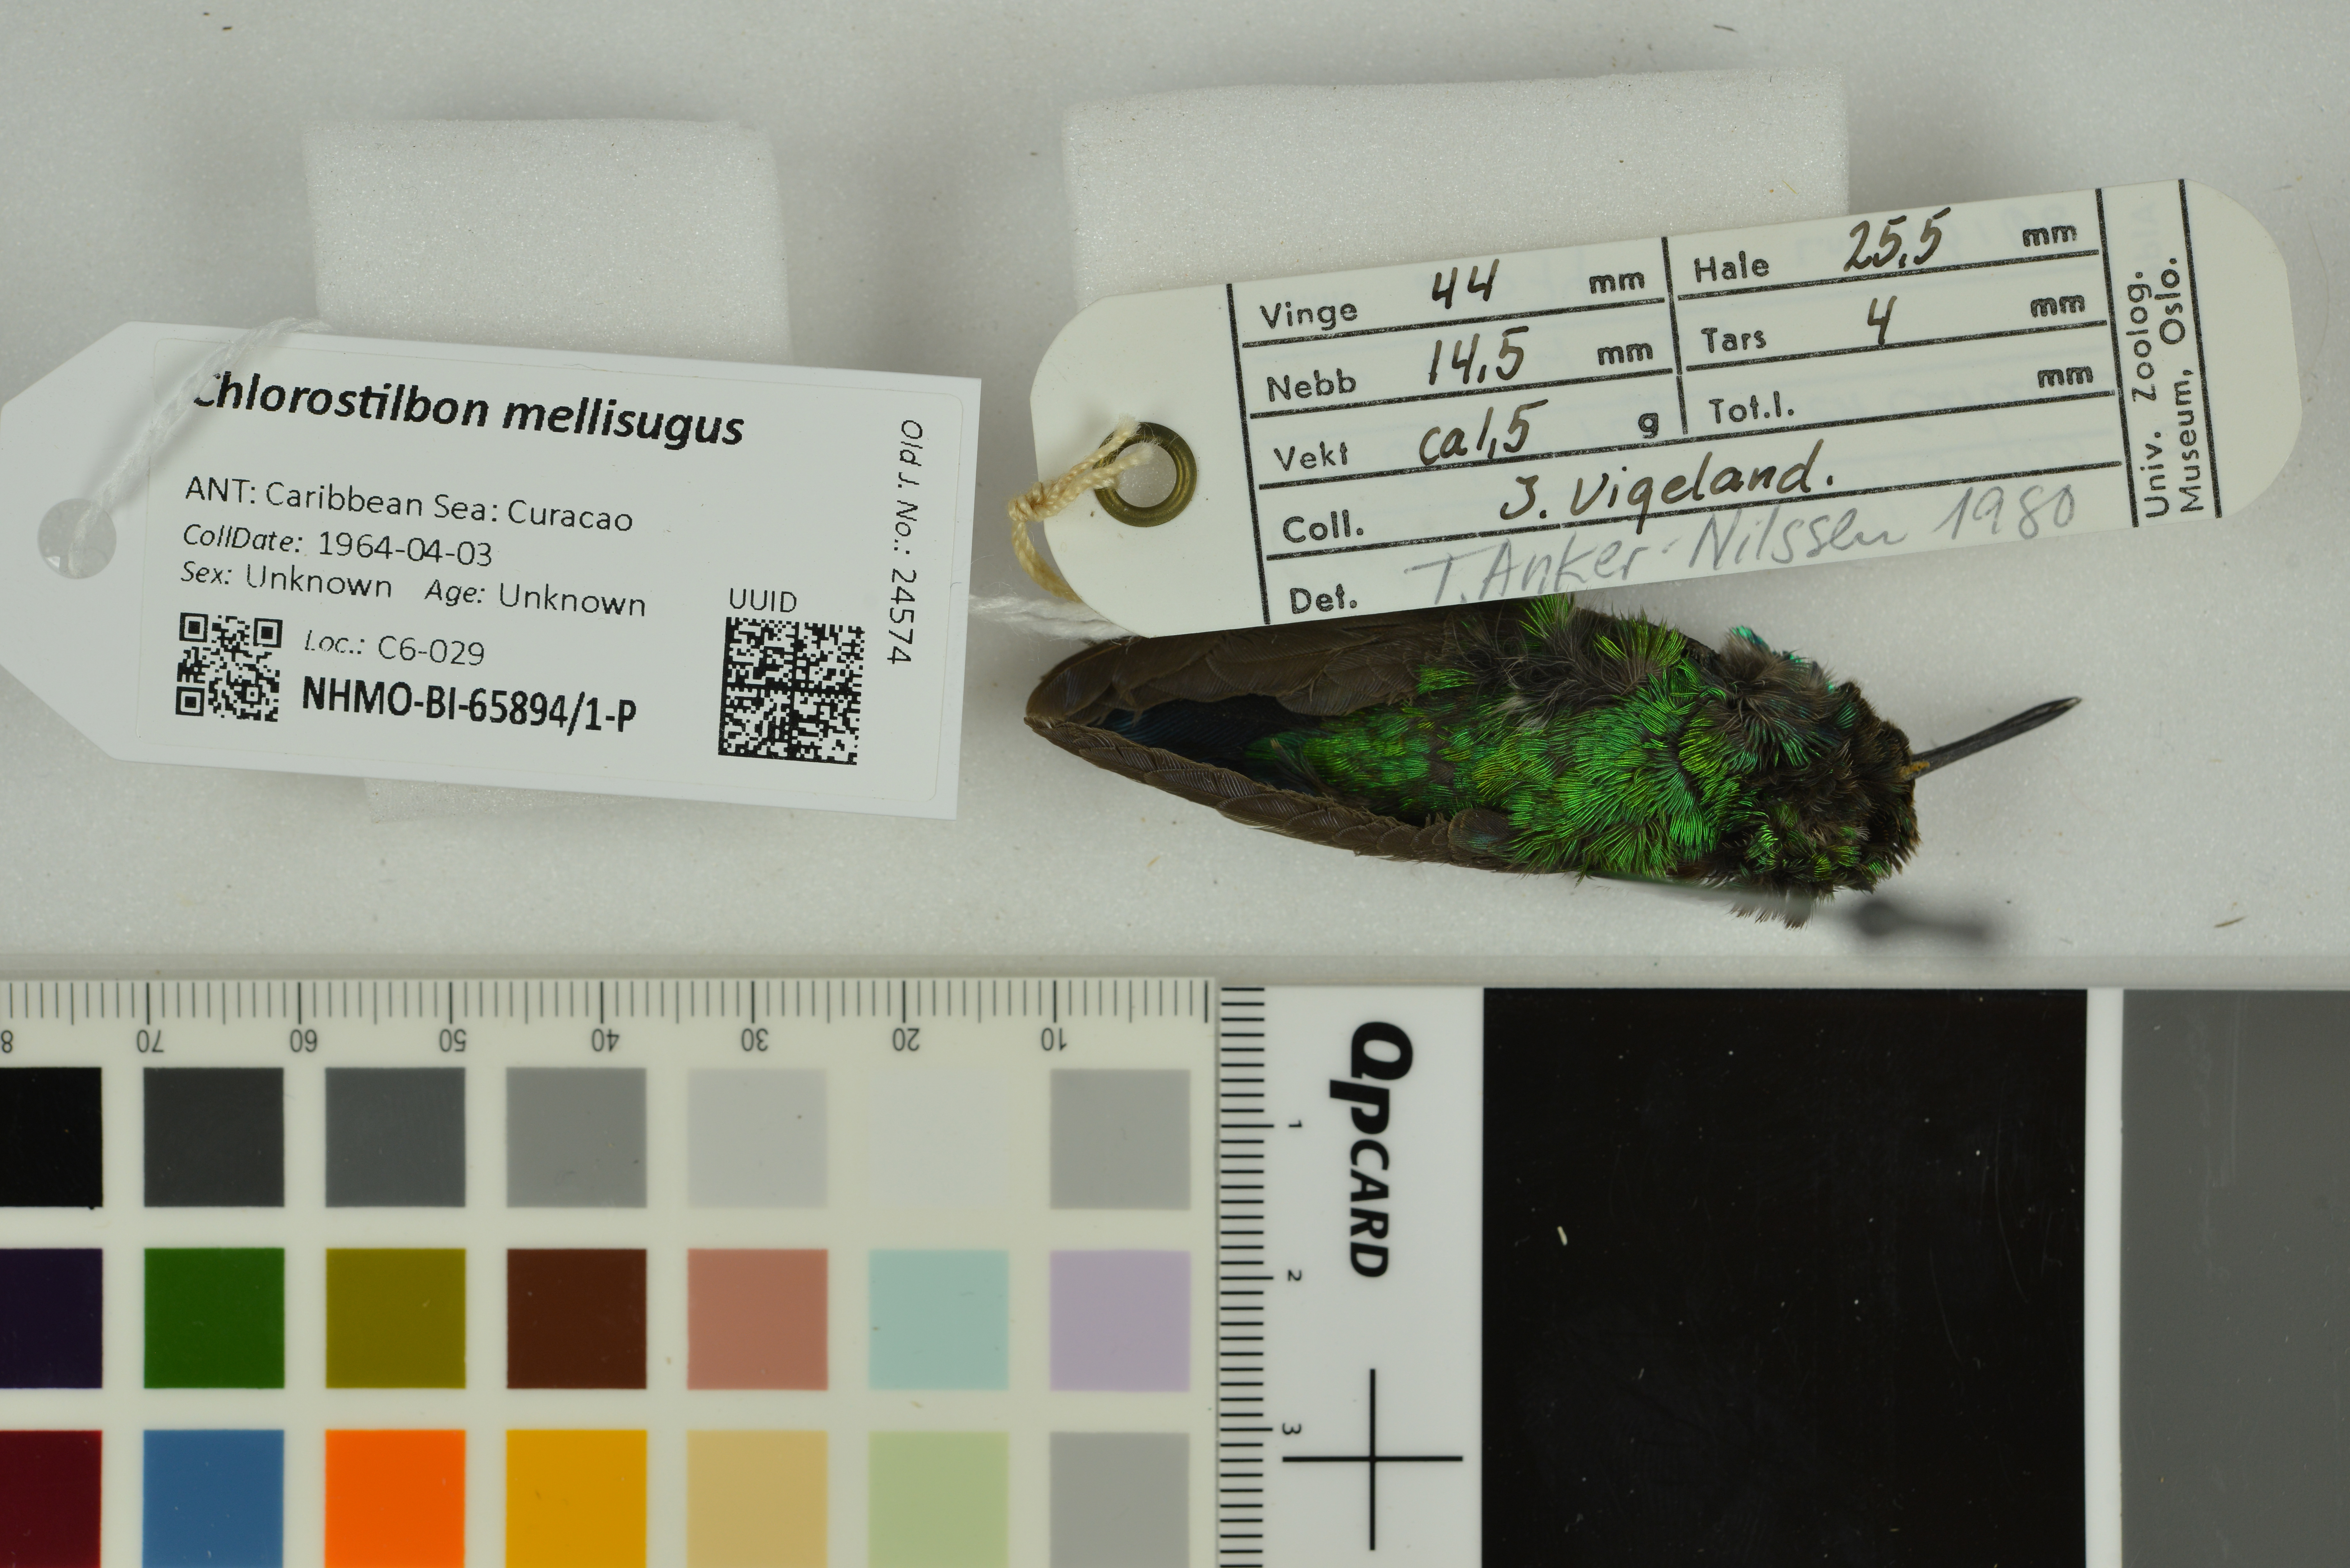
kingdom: Animalia
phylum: Chordata
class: Aves
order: Apodiformes
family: Trochilidae
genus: Chlorostilbon
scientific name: Chlorostilbon mellisugus
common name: Blue-tailed emerald
